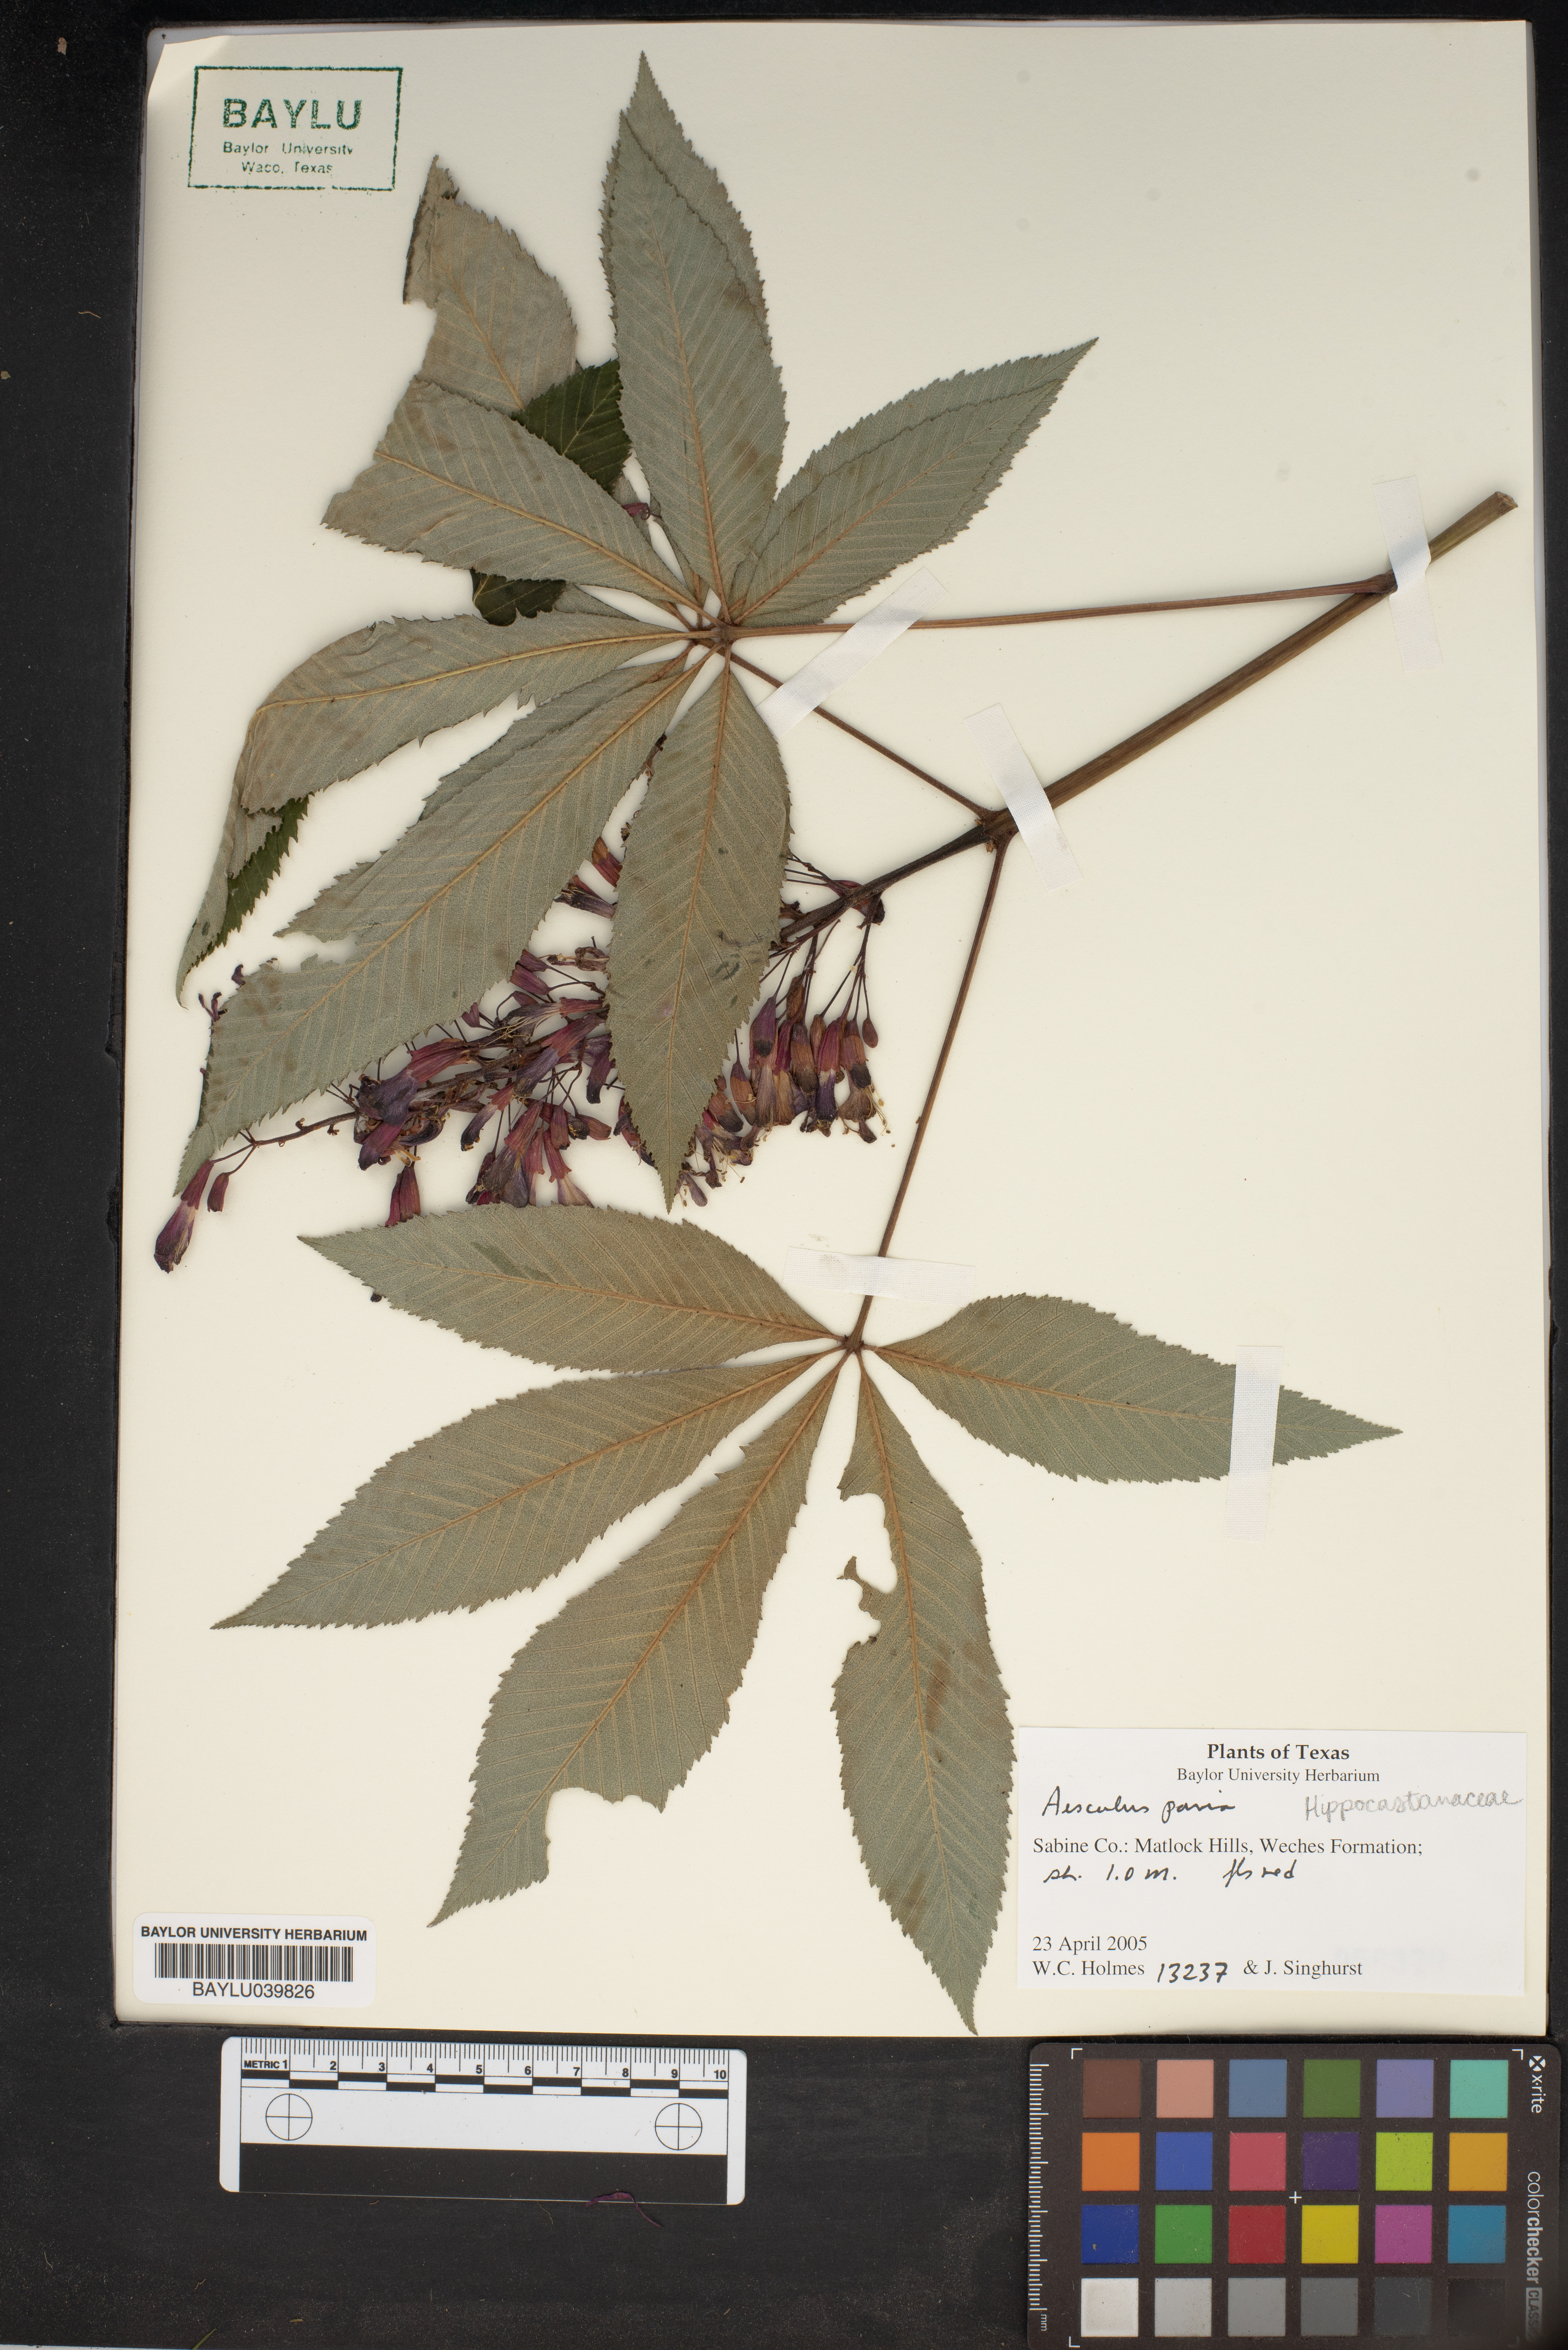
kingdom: Plantae
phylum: Tracheophyta
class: Magnoliopsida
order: Sapindales
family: Sapindaceae
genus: Aesculus
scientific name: Aesculus pavia
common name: Red buckeye
